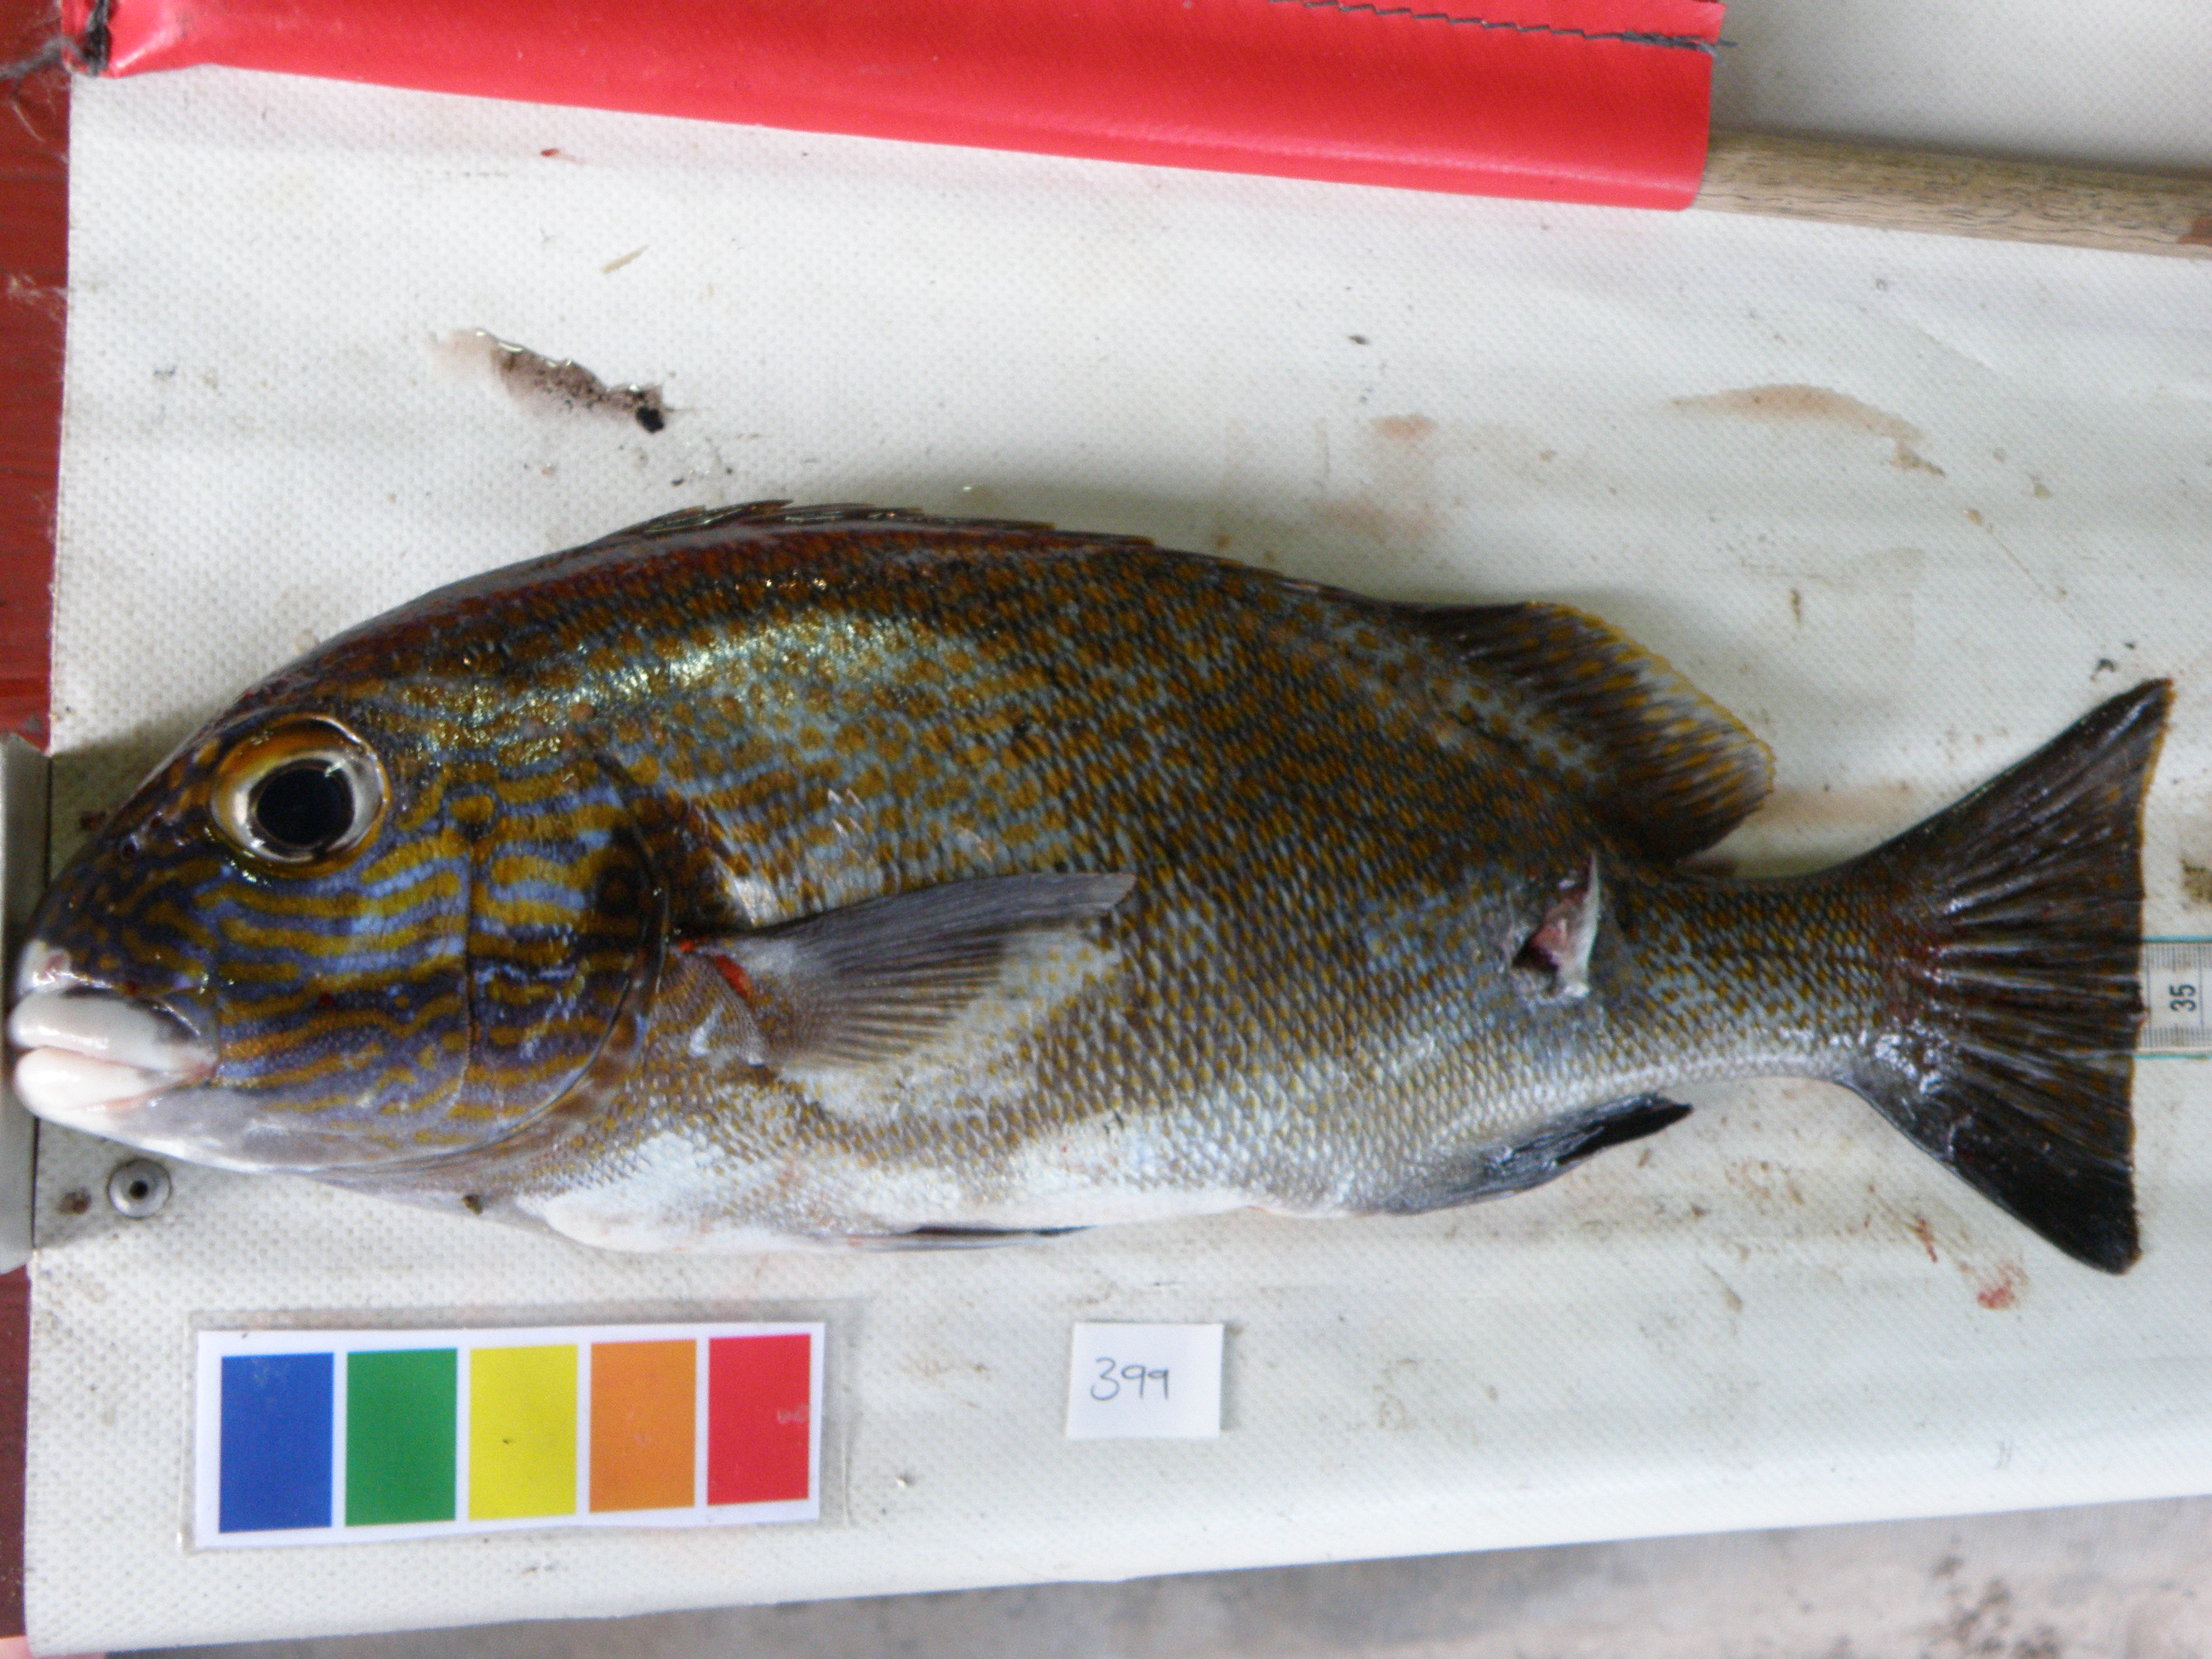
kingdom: Animalia
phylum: Chordata
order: Perciformes
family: Haemulidae
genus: Plectorhinchus
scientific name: Plectorhinchus flavomaculatus
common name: Netted sweetlips
